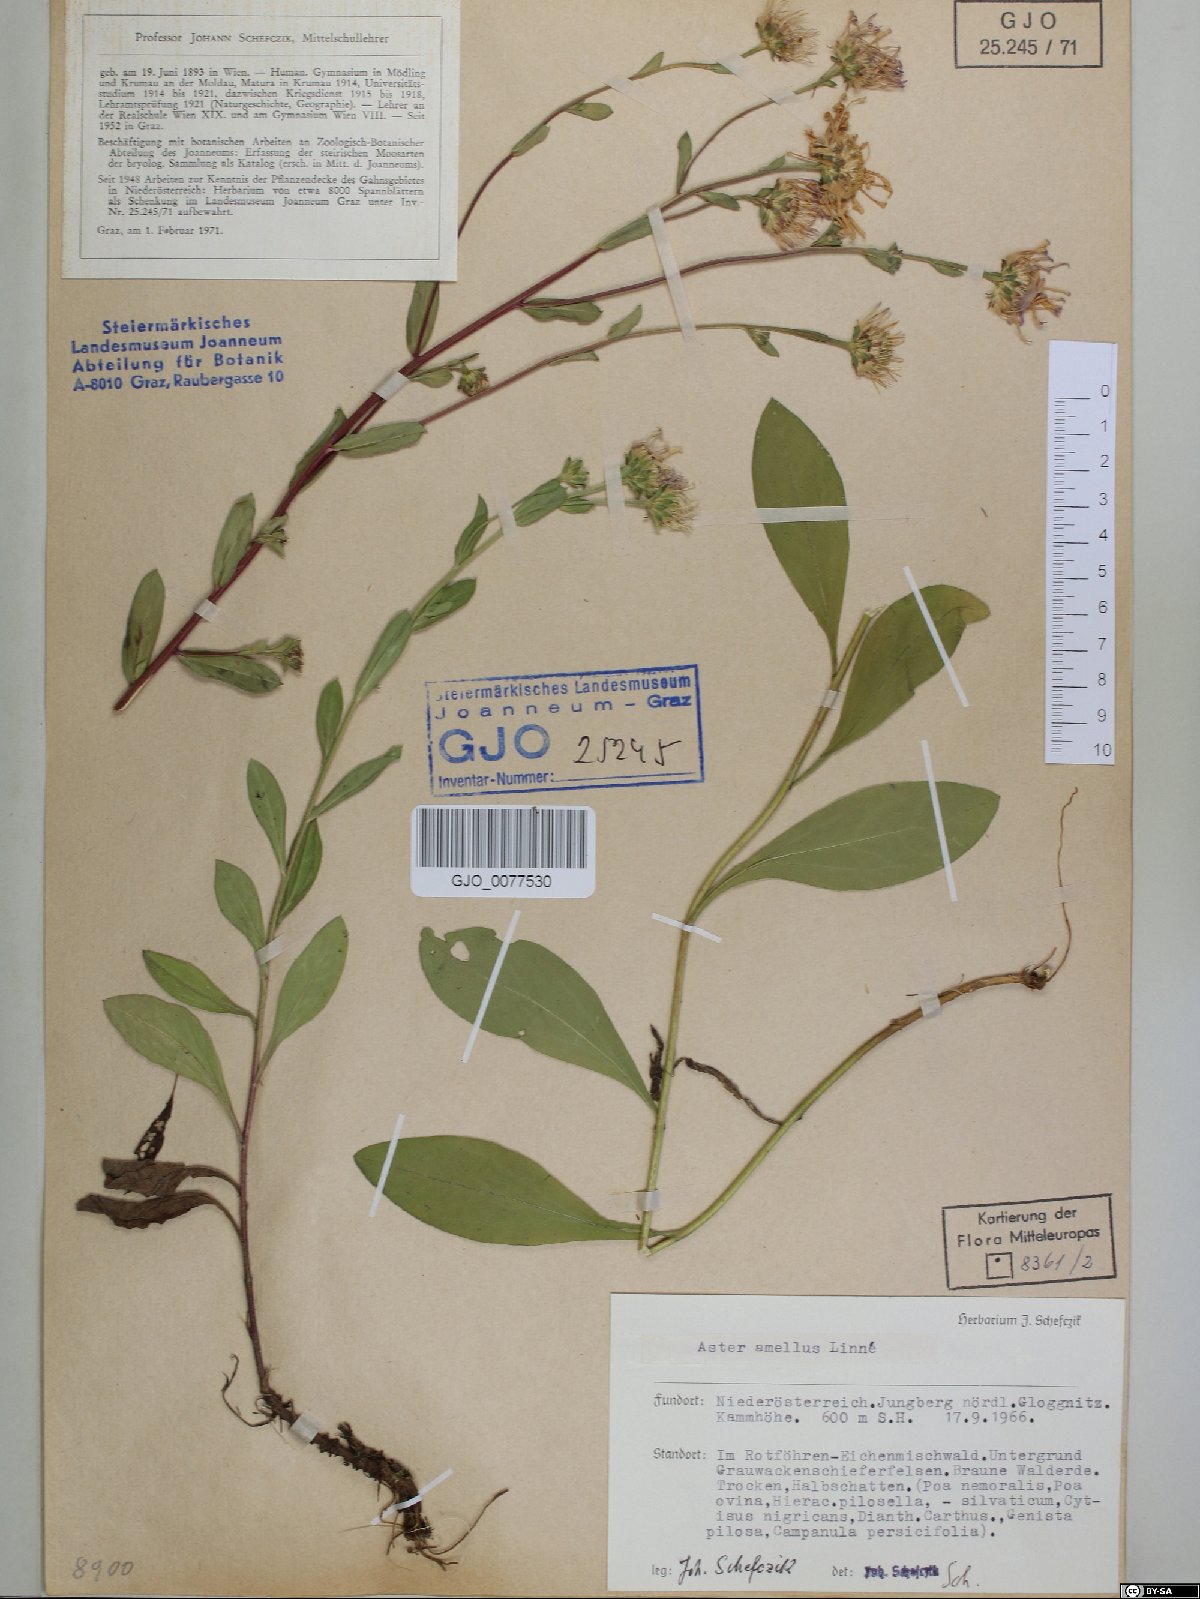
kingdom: Plantae
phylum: Tracheophyta
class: Magnoliopsida
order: Asterales
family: Asteraceae
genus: Aster
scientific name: Aster amellus
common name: European michaelmas daisy
